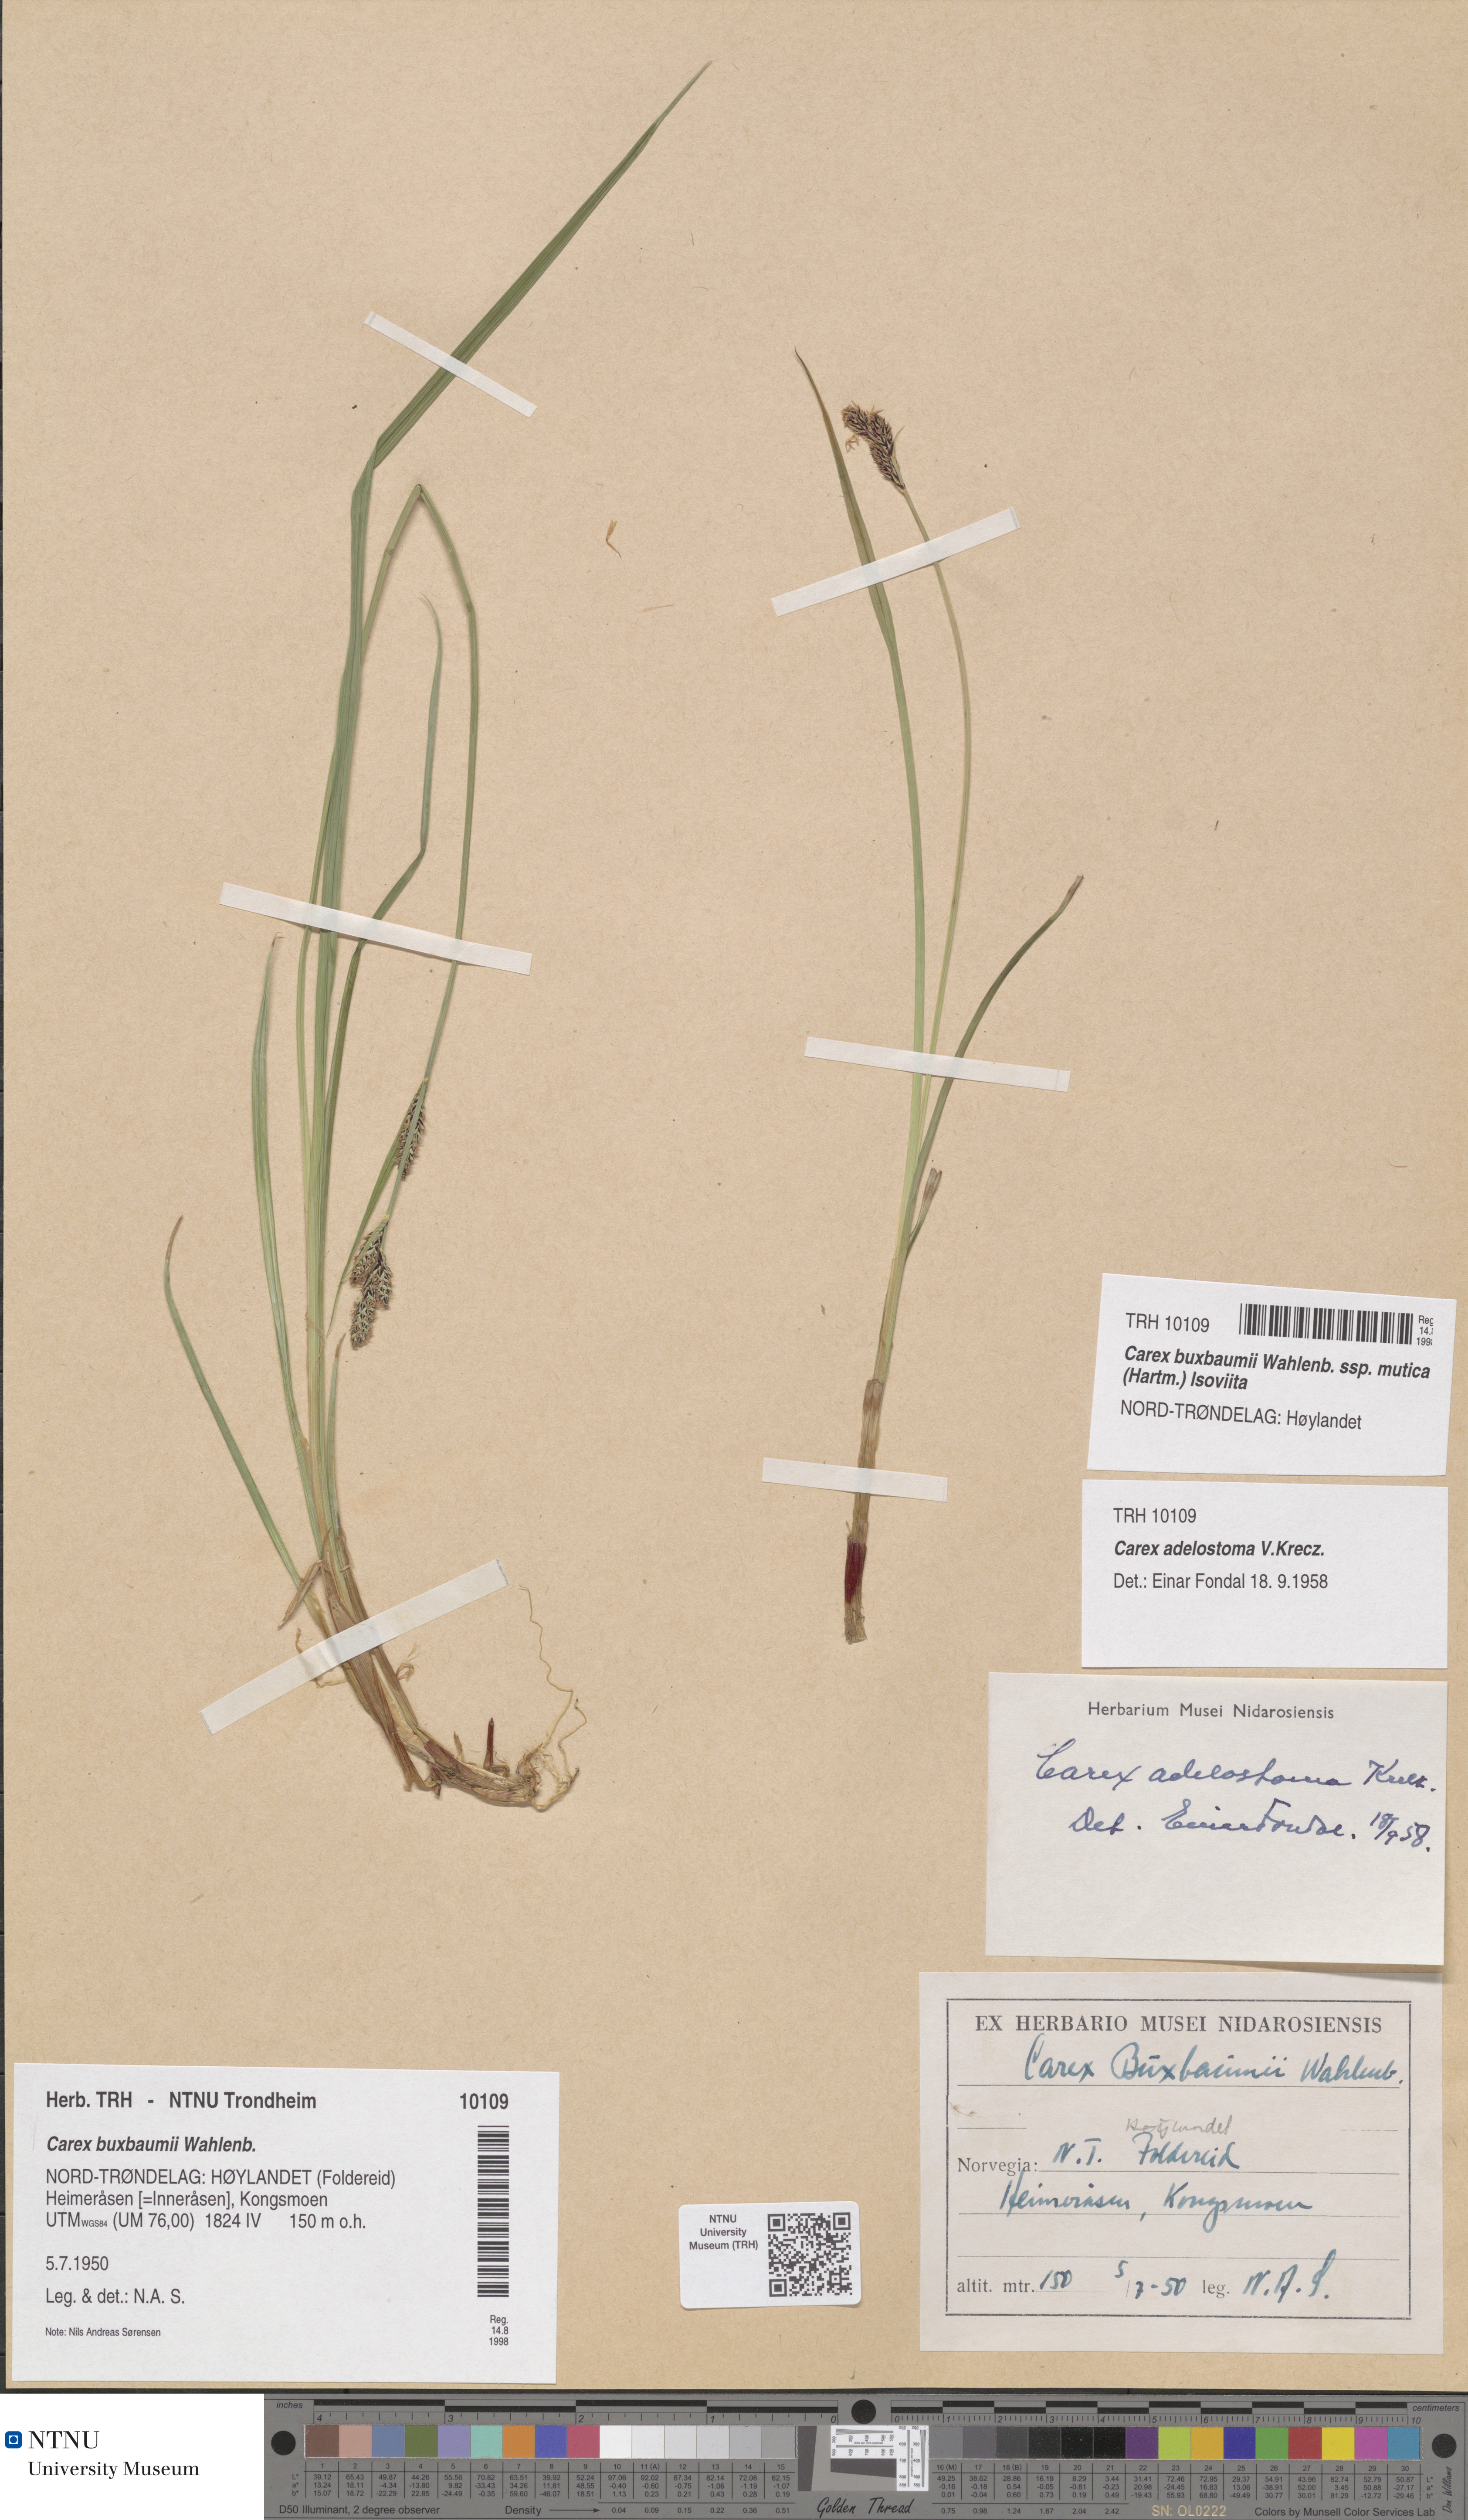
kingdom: Plantae
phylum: Tracheophyta
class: Liliopsida
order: Poales
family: Cyperaceae
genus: Carex
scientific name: Carex adelostoma
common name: Circumpolar sedge
